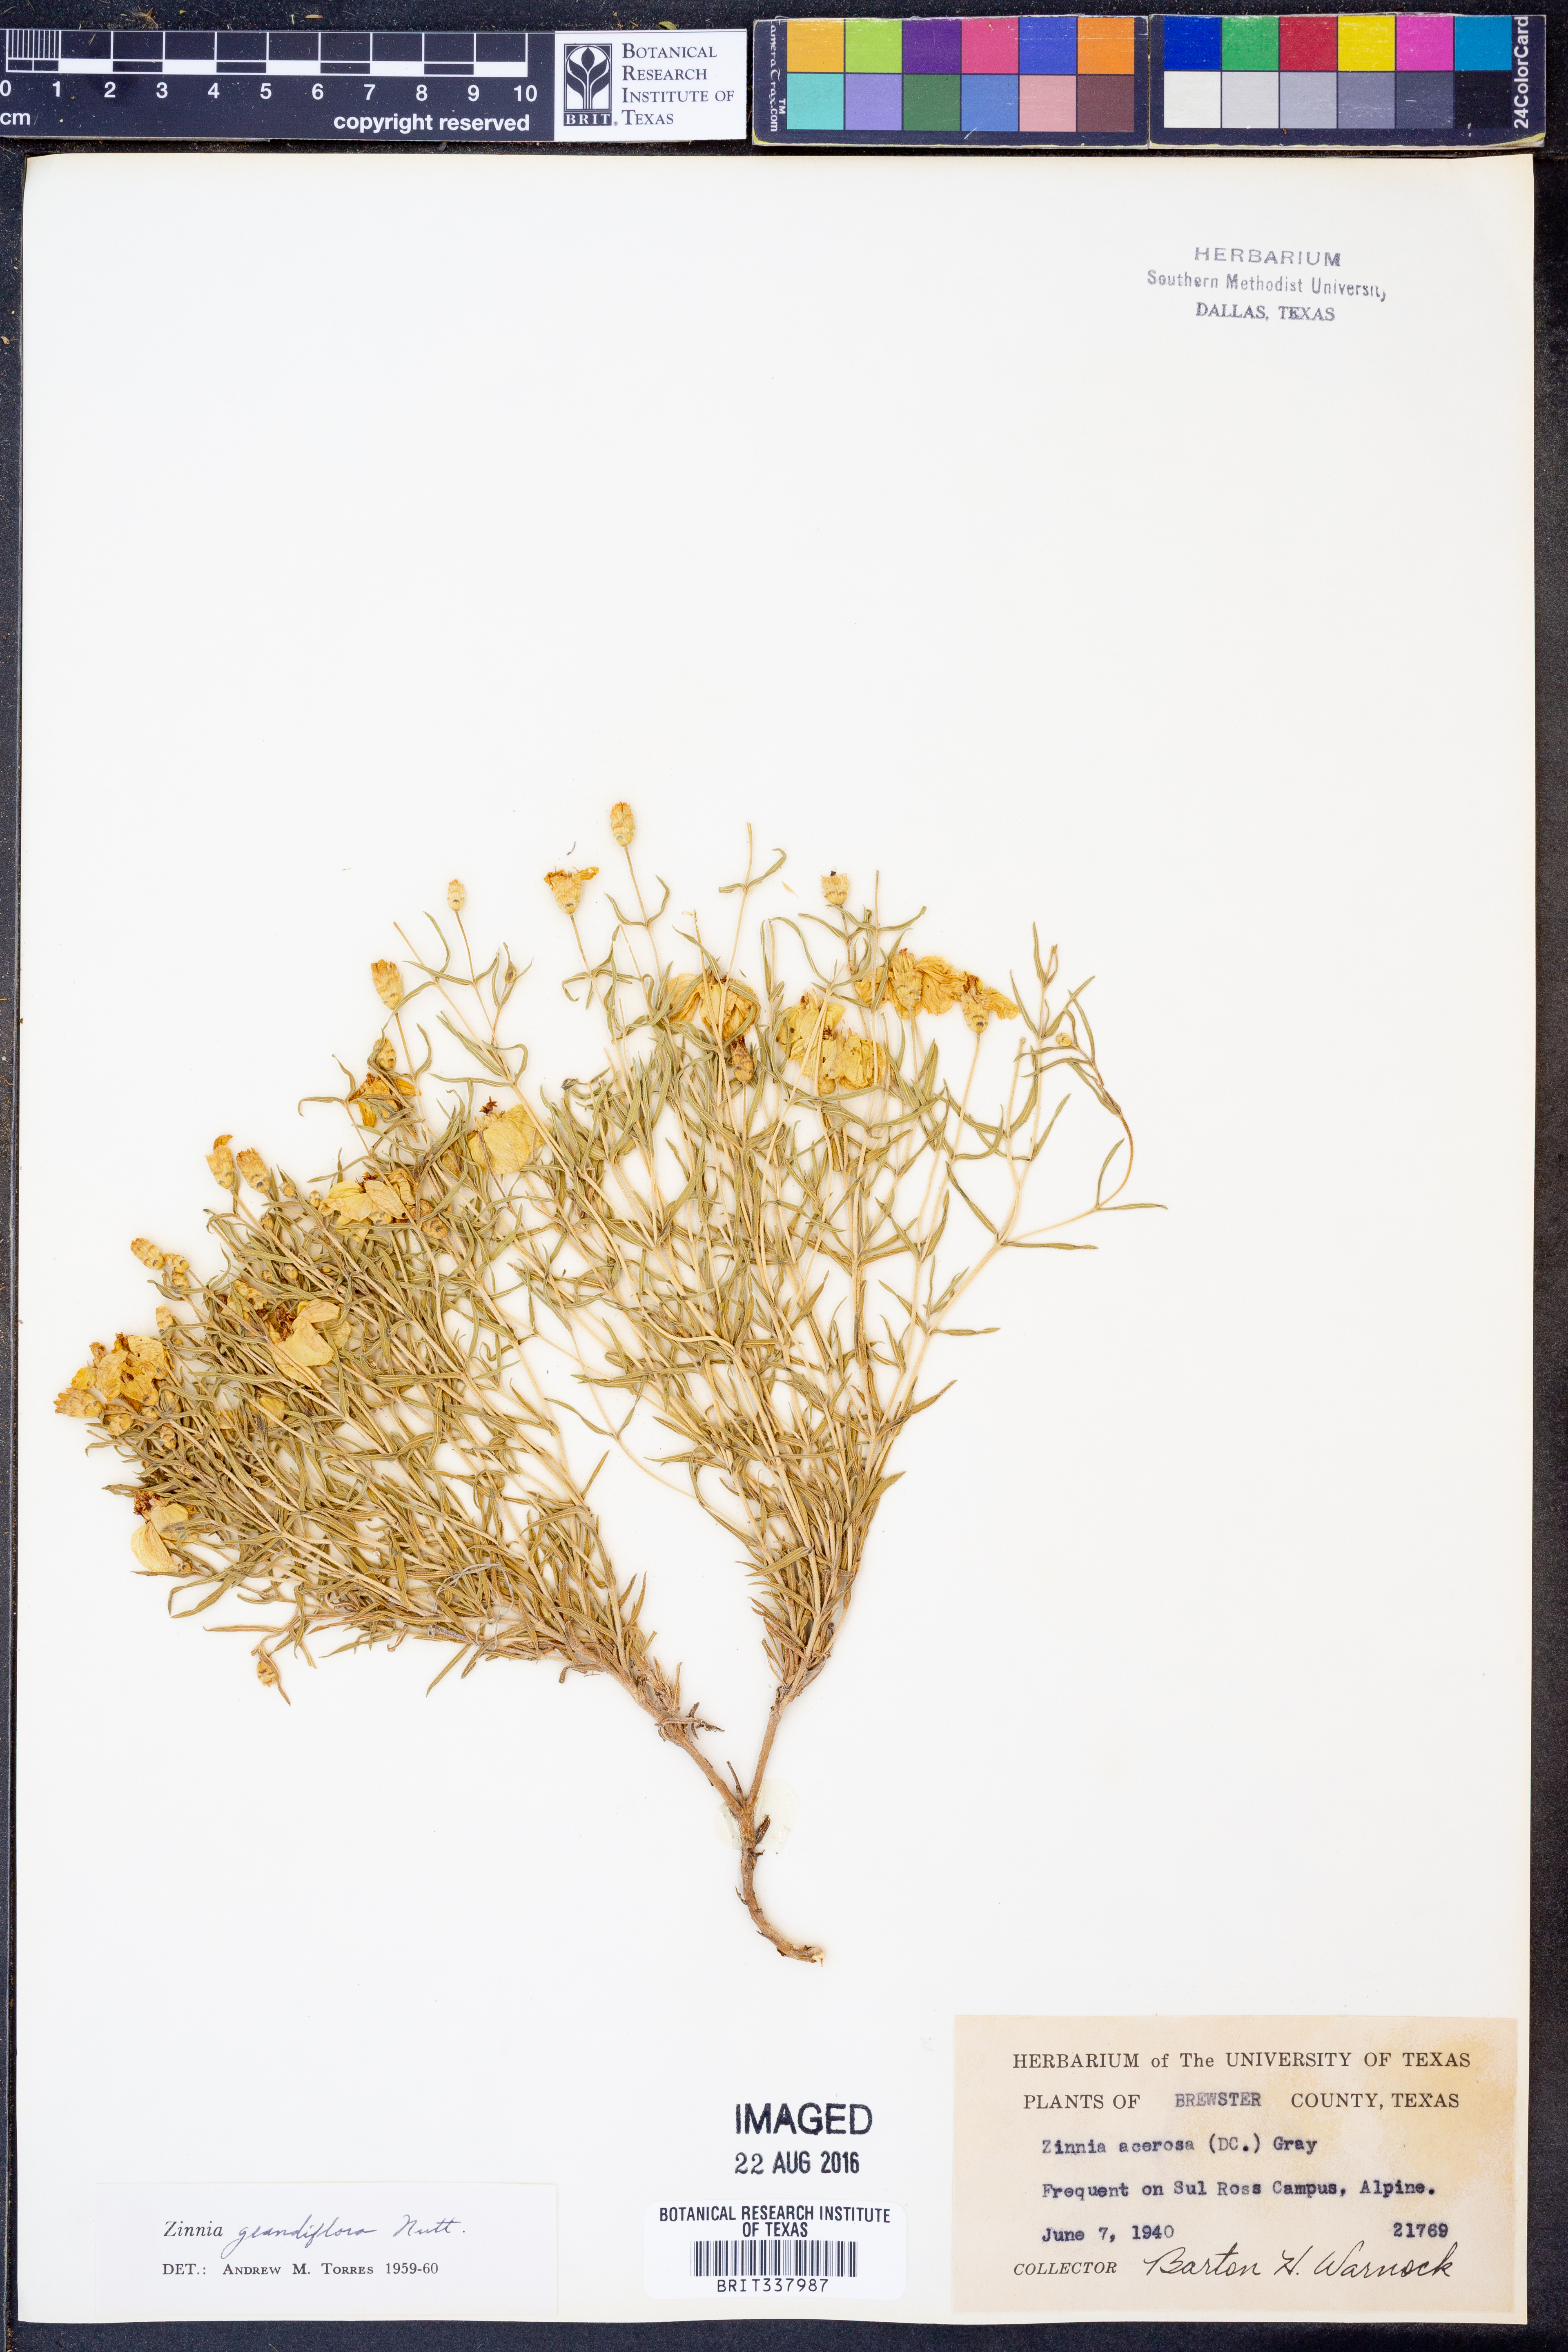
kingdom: Plantae
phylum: Tracheophyta
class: Magnoliopsida
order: Asterales
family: Asteraceae
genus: Zinnia
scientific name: Zinnia grandiflora
